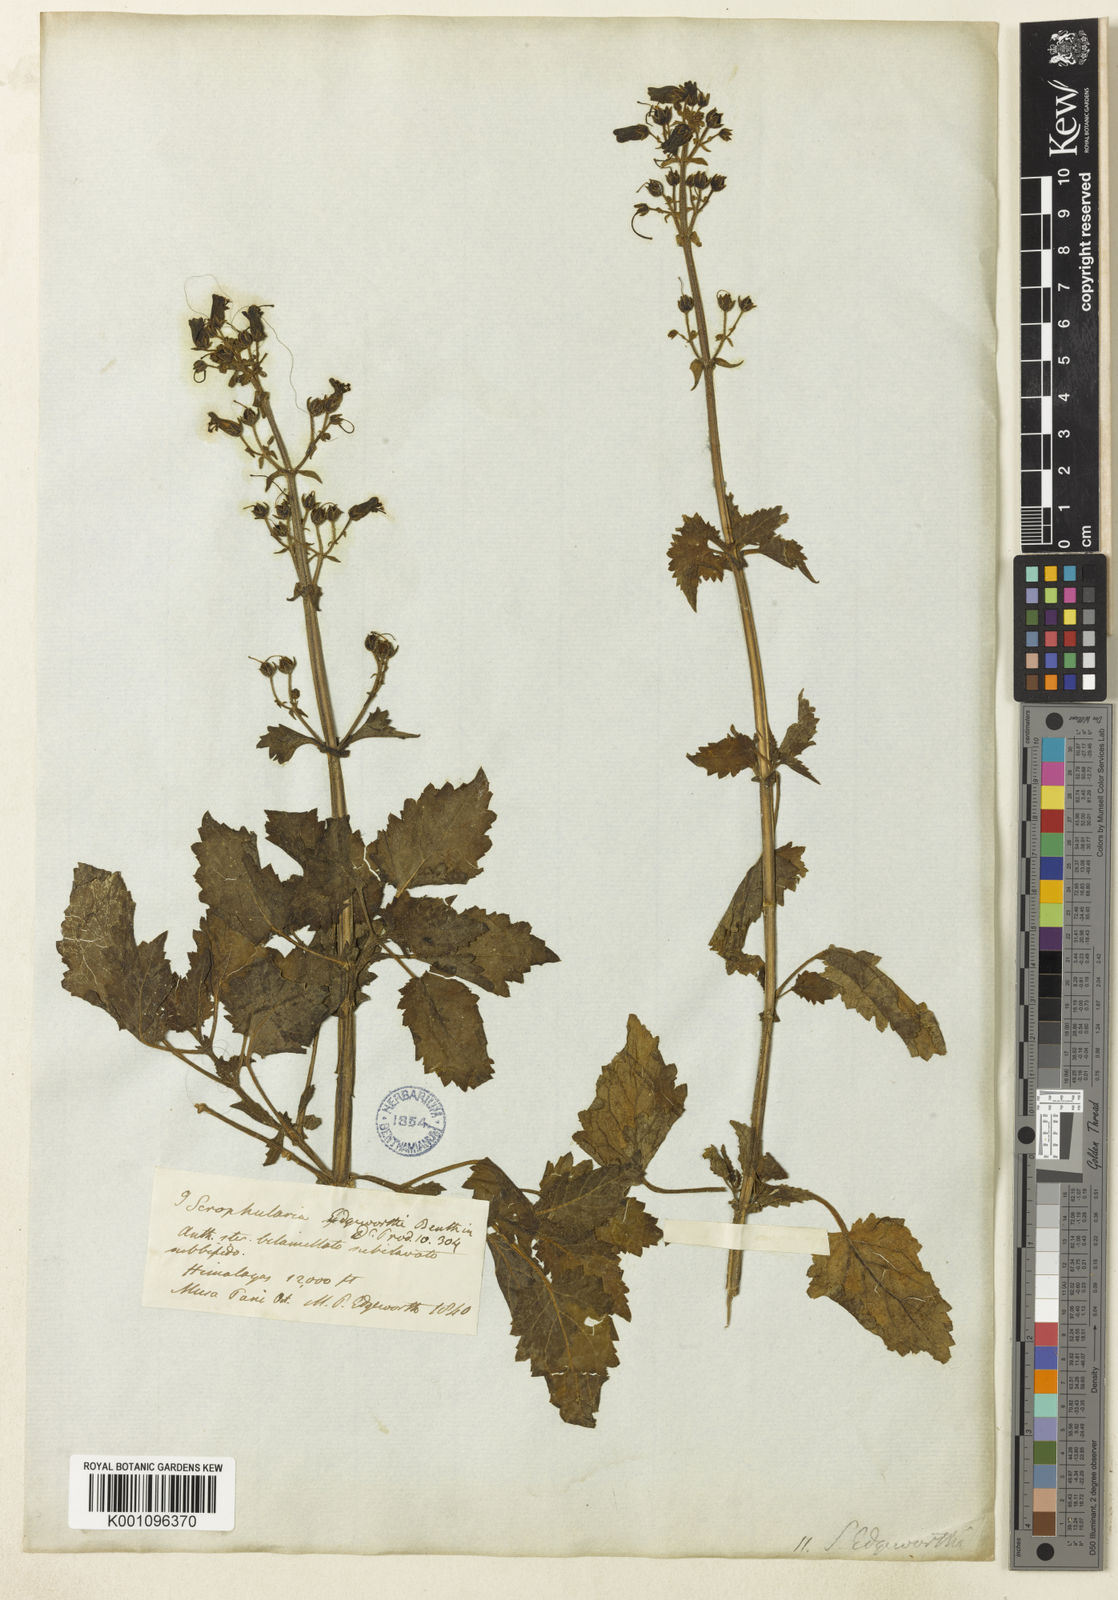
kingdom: Plantae
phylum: Tracheophyta
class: Magnoliopsida
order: Lamiales
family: Scrophulariaceae
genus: Scrophularia
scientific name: Scrophularia edgeworthii
